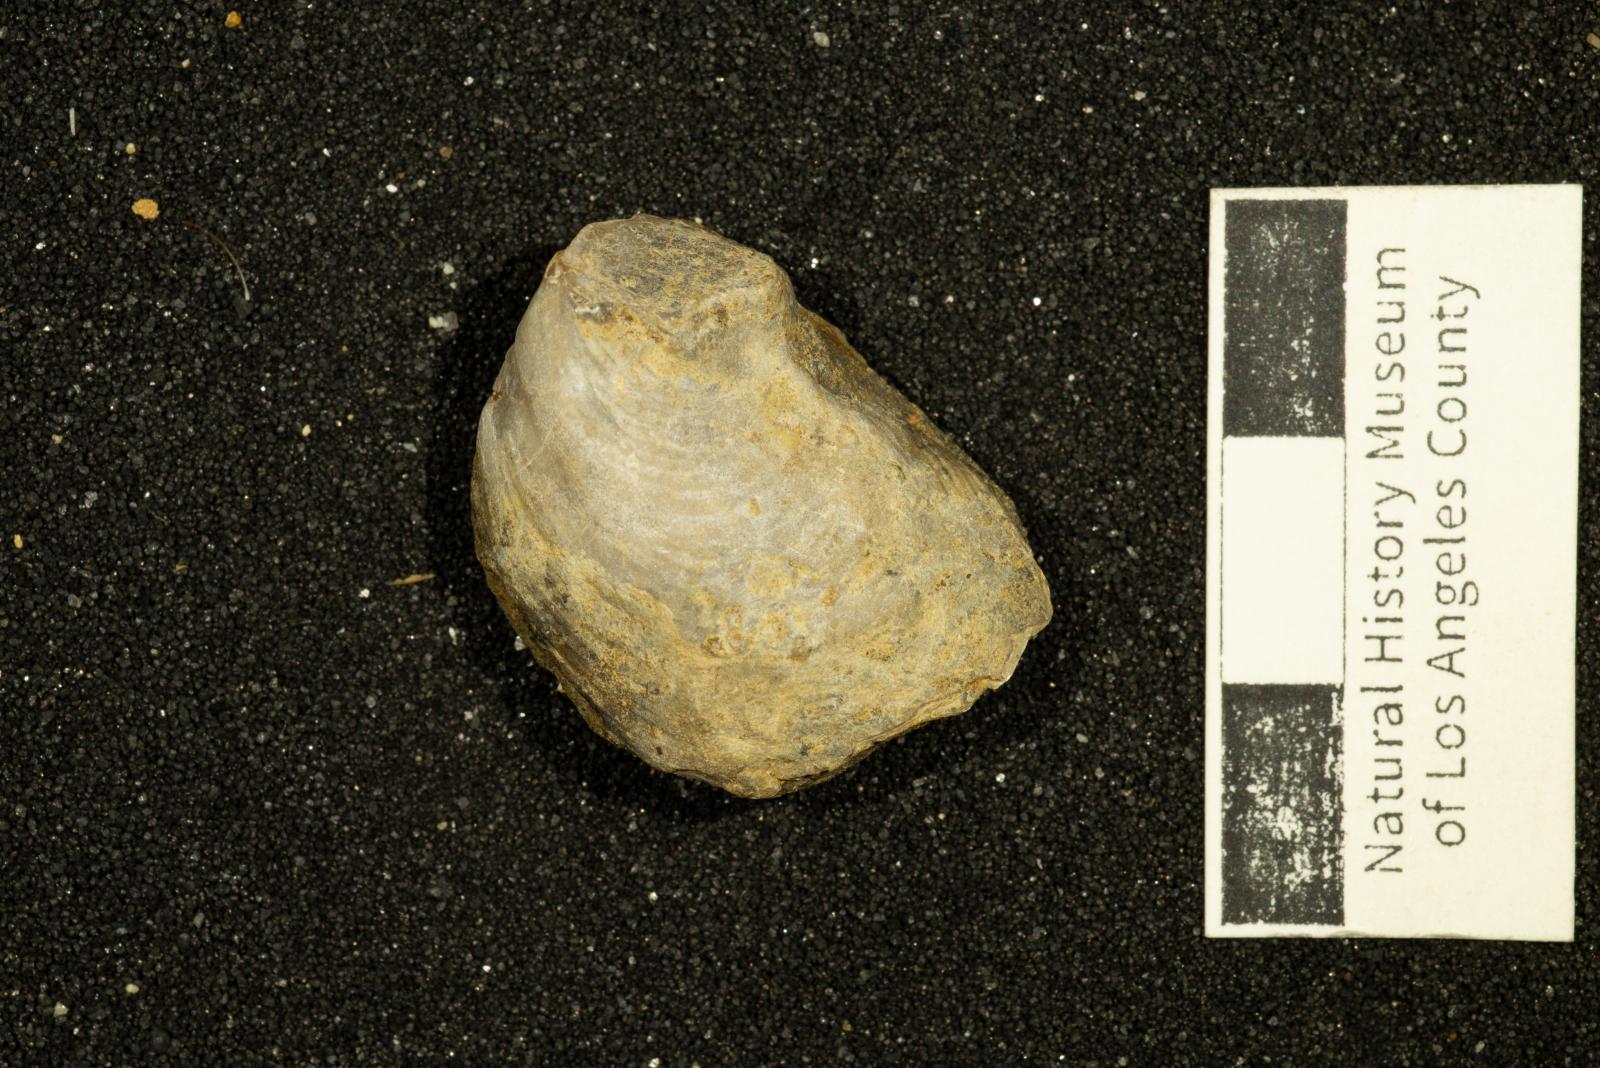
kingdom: Animalia
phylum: Mollusca
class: Bivalvia
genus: Phygraea
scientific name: Phygraea
